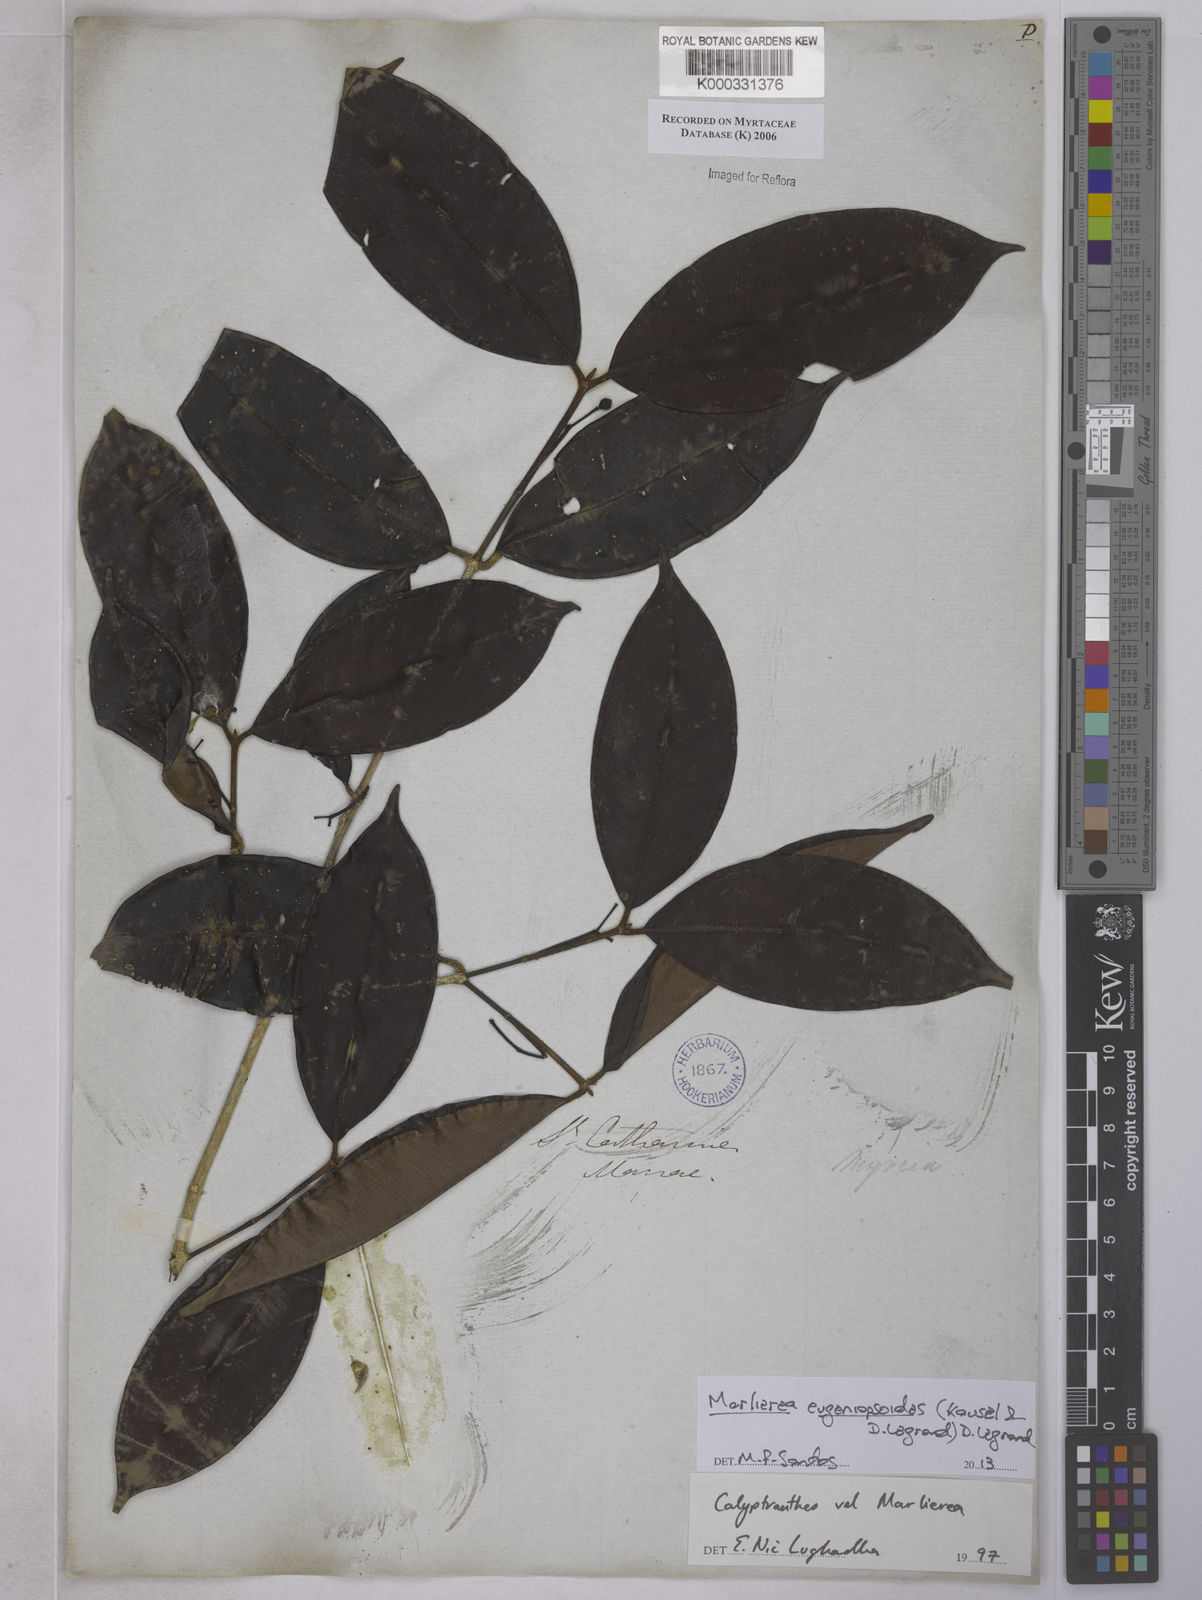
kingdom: Plantae
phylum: Tracheophyta
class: Magnoliopsida
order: Myrtales
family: Myrtaceae
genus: Calyptranthes
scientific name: Calyptranthes
